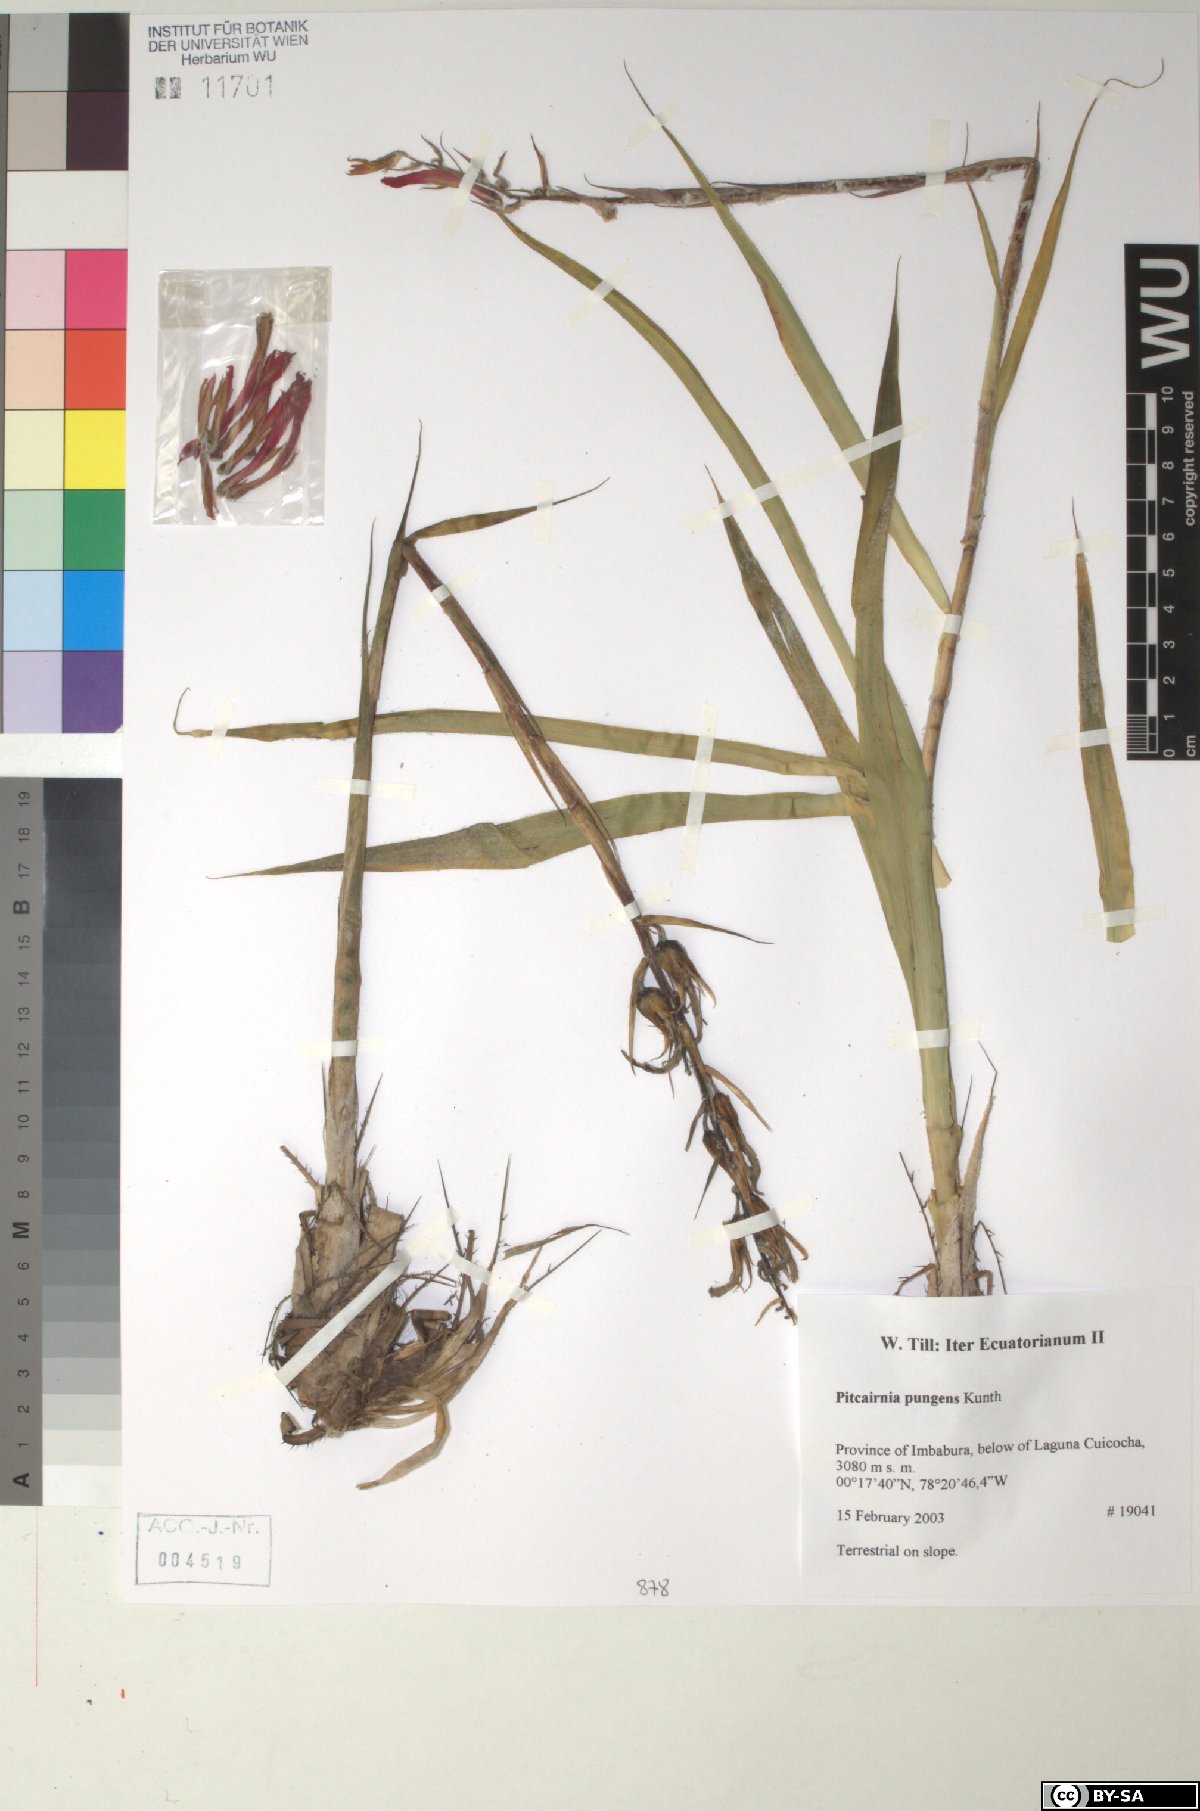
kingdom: Plantae
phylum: Tracheophyta
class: Liliopsida
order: Poales
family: Bromeliaceae
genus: Pitcairnia
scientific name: Pitcairnia pungens
